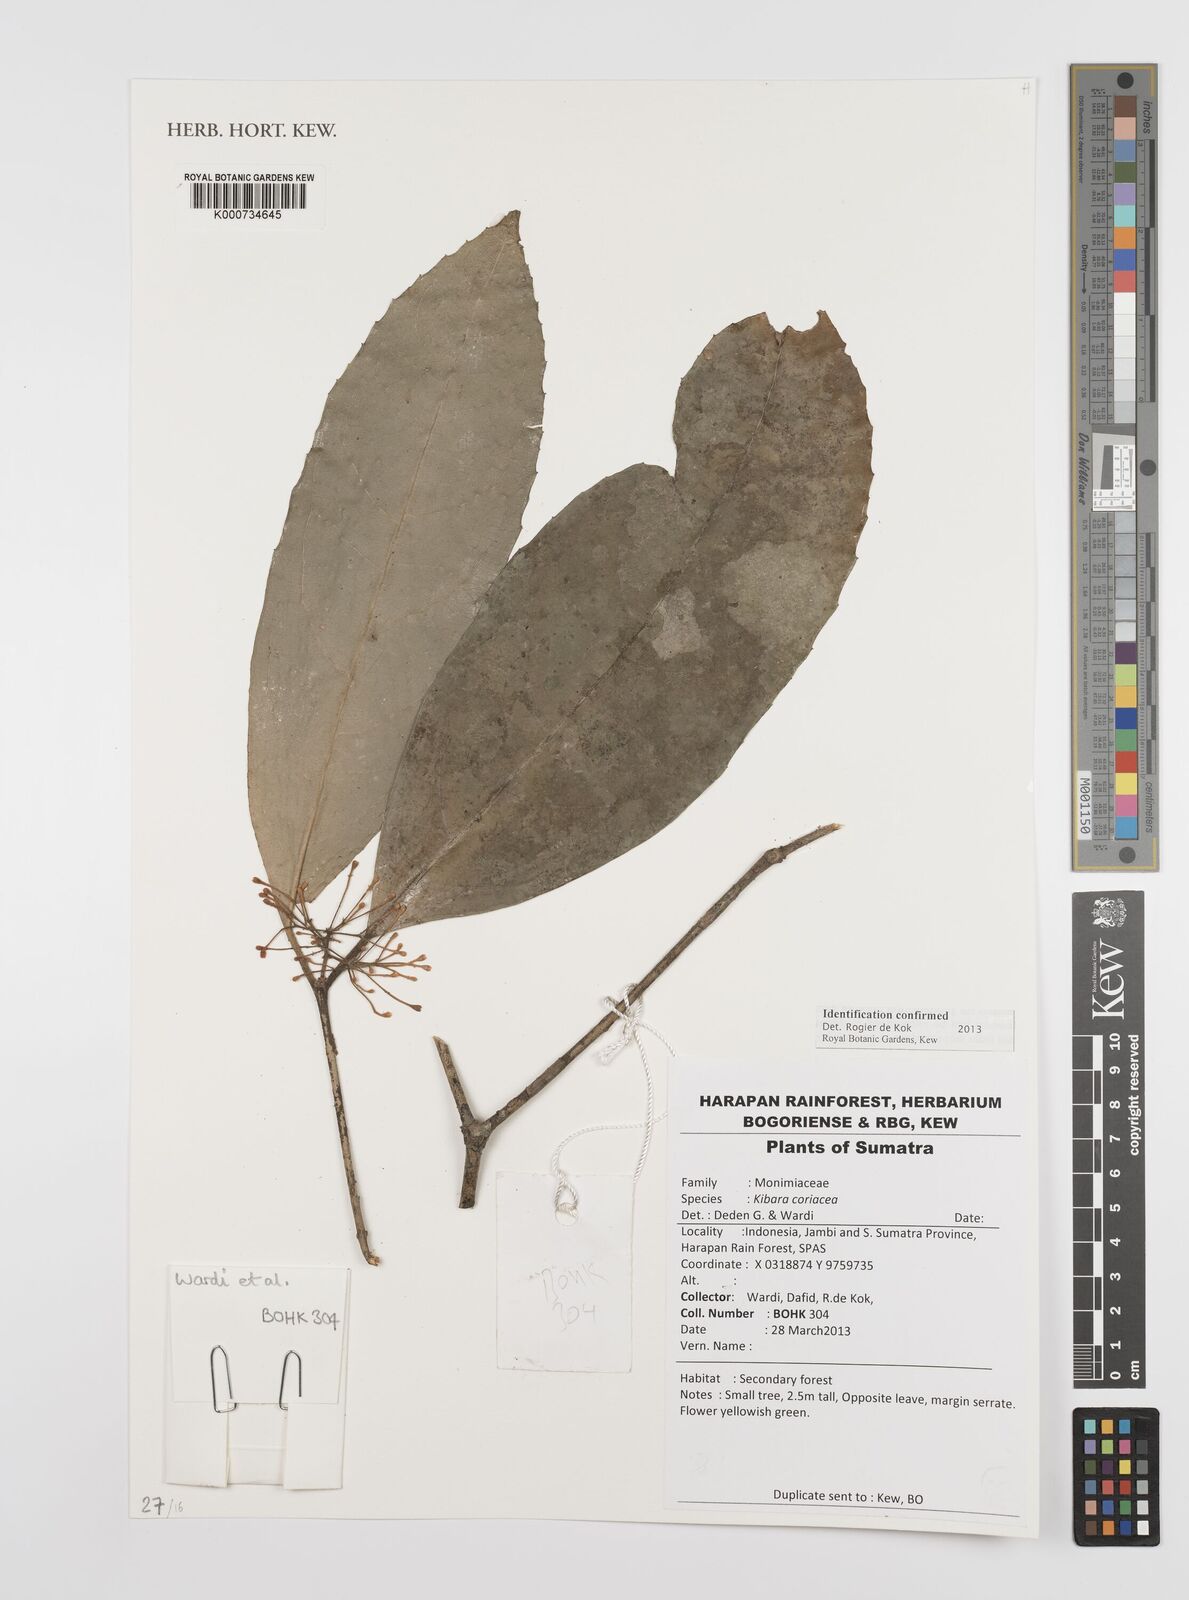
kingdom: Plantae
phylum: Tracheophyta
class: Magnoliopsida
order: Laurales
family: Monimiaceae
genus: Kibara
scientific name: Kibara
